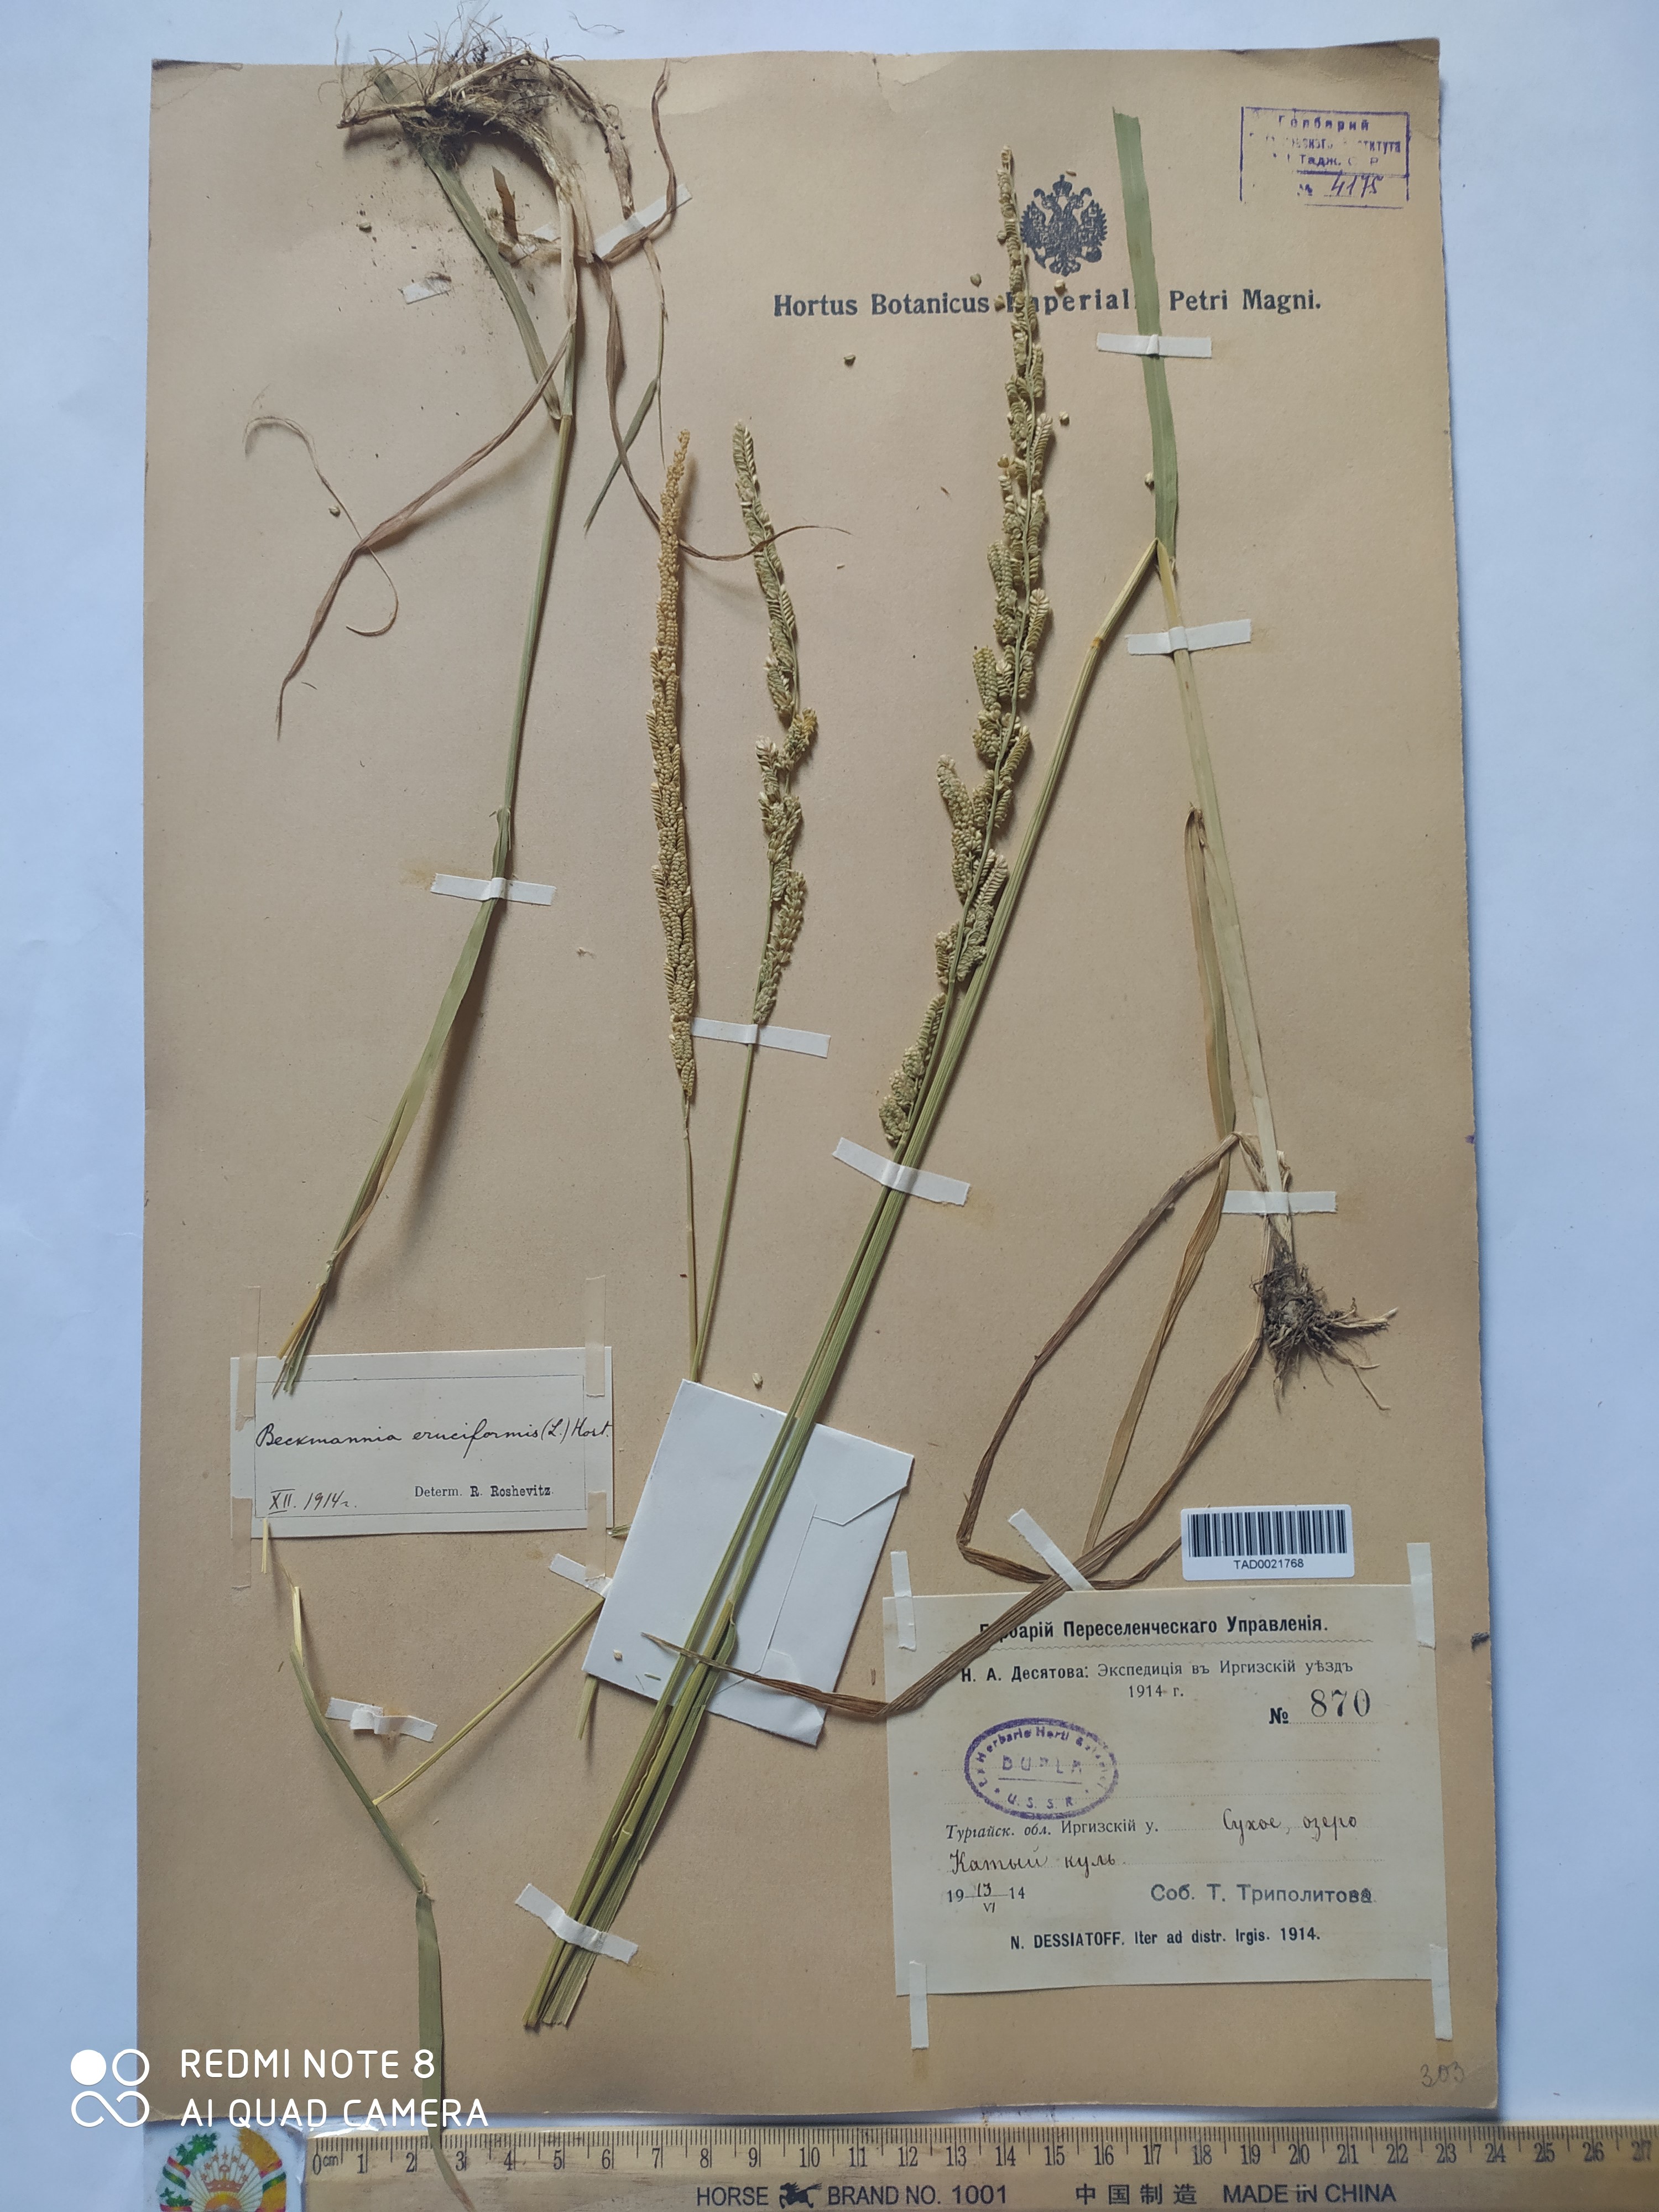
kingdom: Plantae
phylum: Tracheophyta
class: Liliopsida
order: Poales
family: Poaceae
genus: Beckmannia
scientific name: Beckmannia eruciformis
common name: European slough-grass
